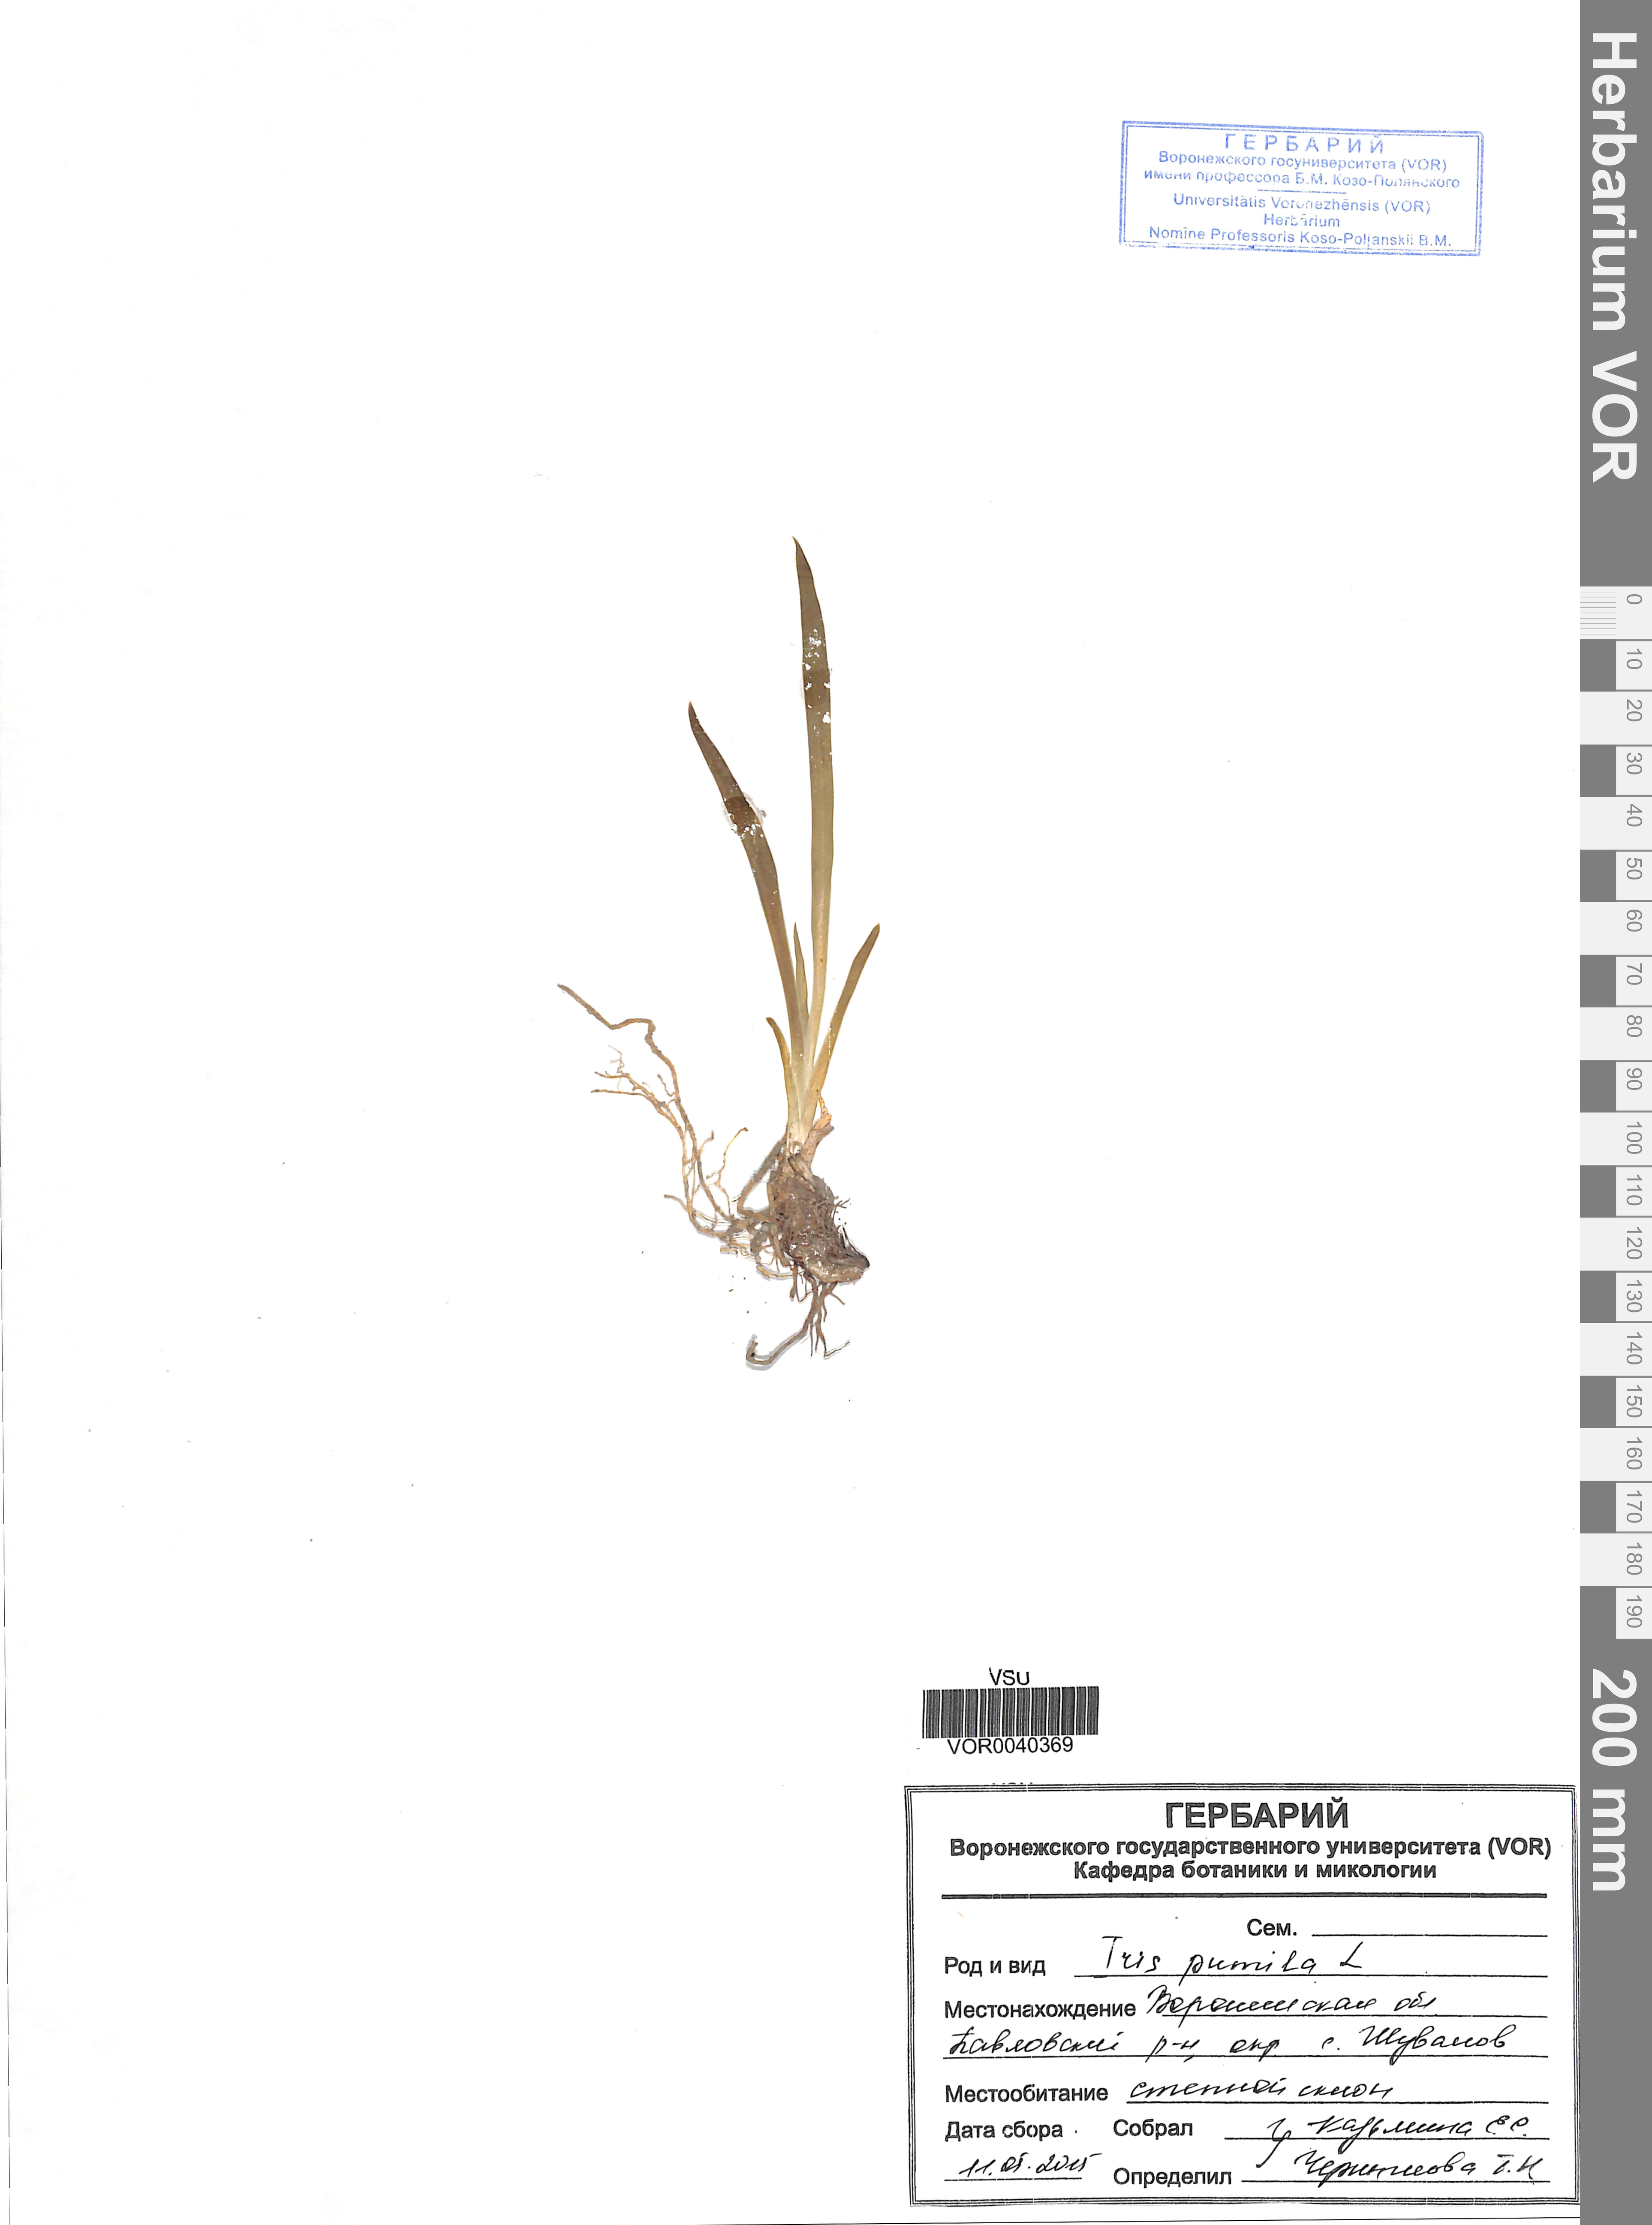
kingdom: Plantae
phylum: Tracheophyta
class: Liliopsida
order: Asparagales
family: Iridaceae
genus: Iris
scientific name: Iris pumila
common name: Dwarf iris
